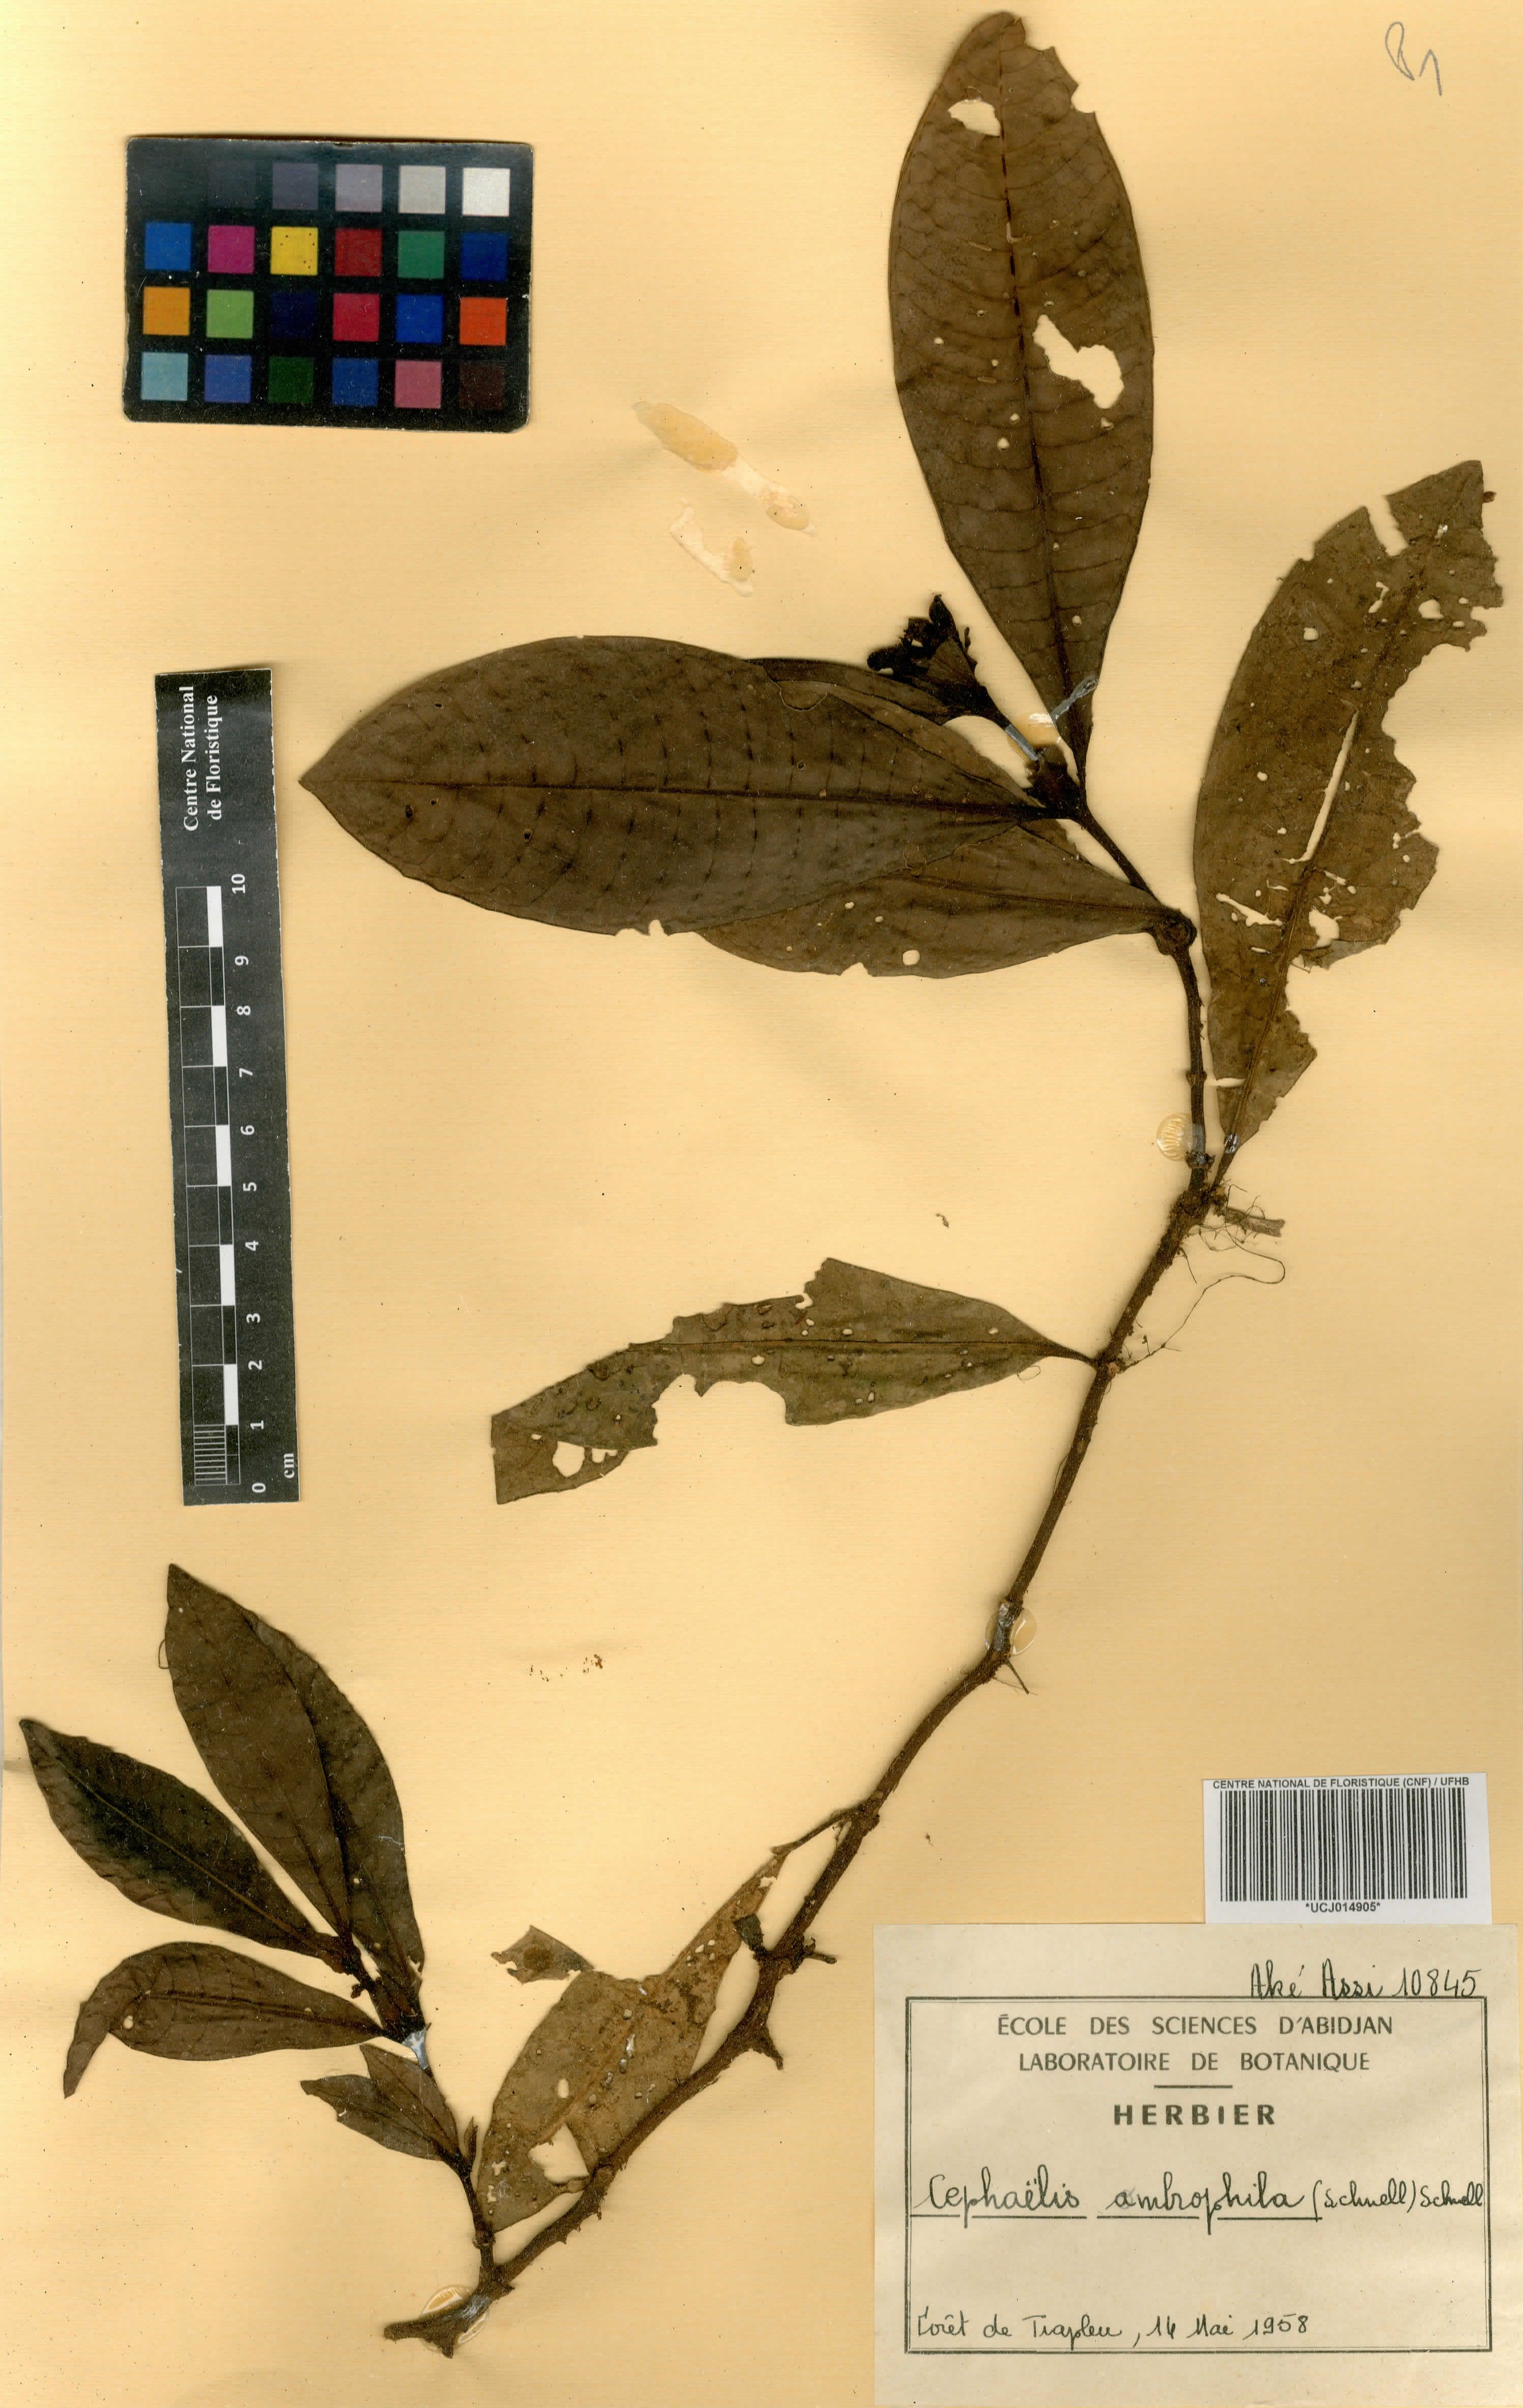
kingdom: Plantae
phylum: Tracheophyta
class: Magnoliopsida
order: Gentianales
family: Rubiaceae
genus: Psychotria
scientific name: Psychotria ombrophila
